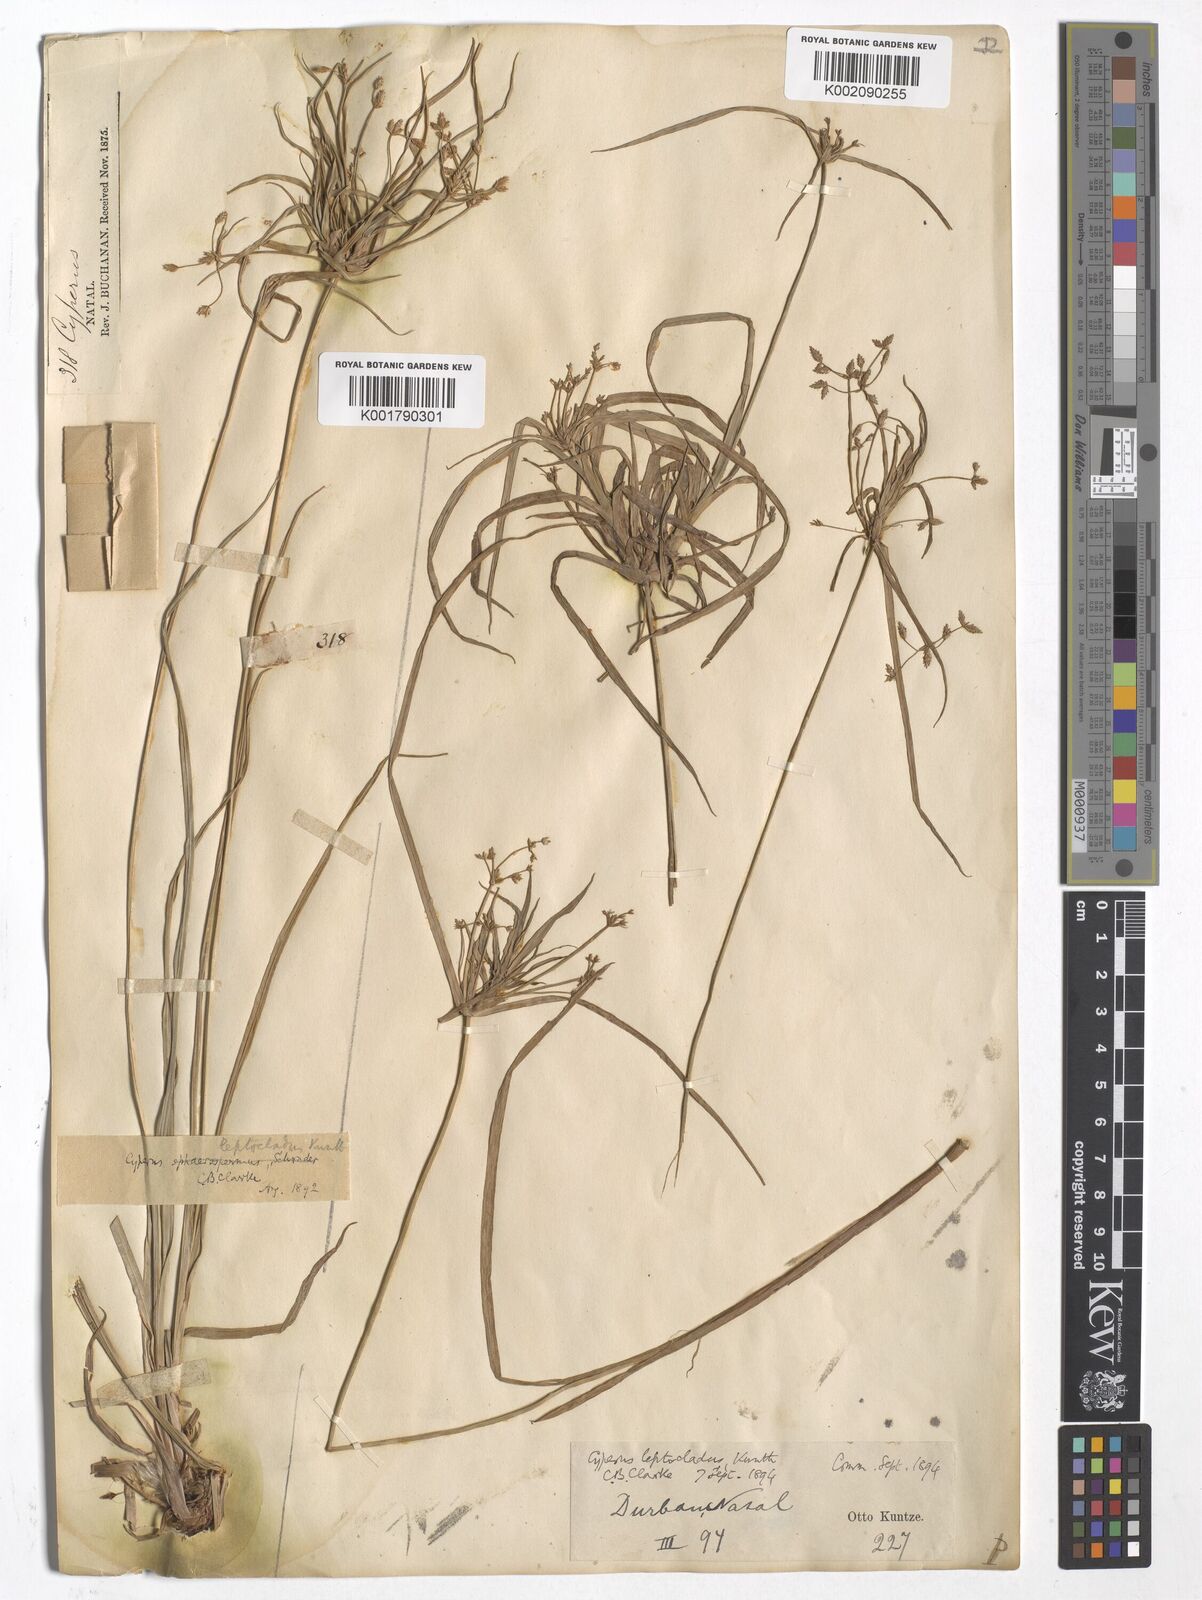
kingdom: Plantae
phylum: Tracheophyta
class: Liliopsida
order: Poales
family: Cyperaceae
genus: Cyperus
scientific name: Cyperus leptocladus
